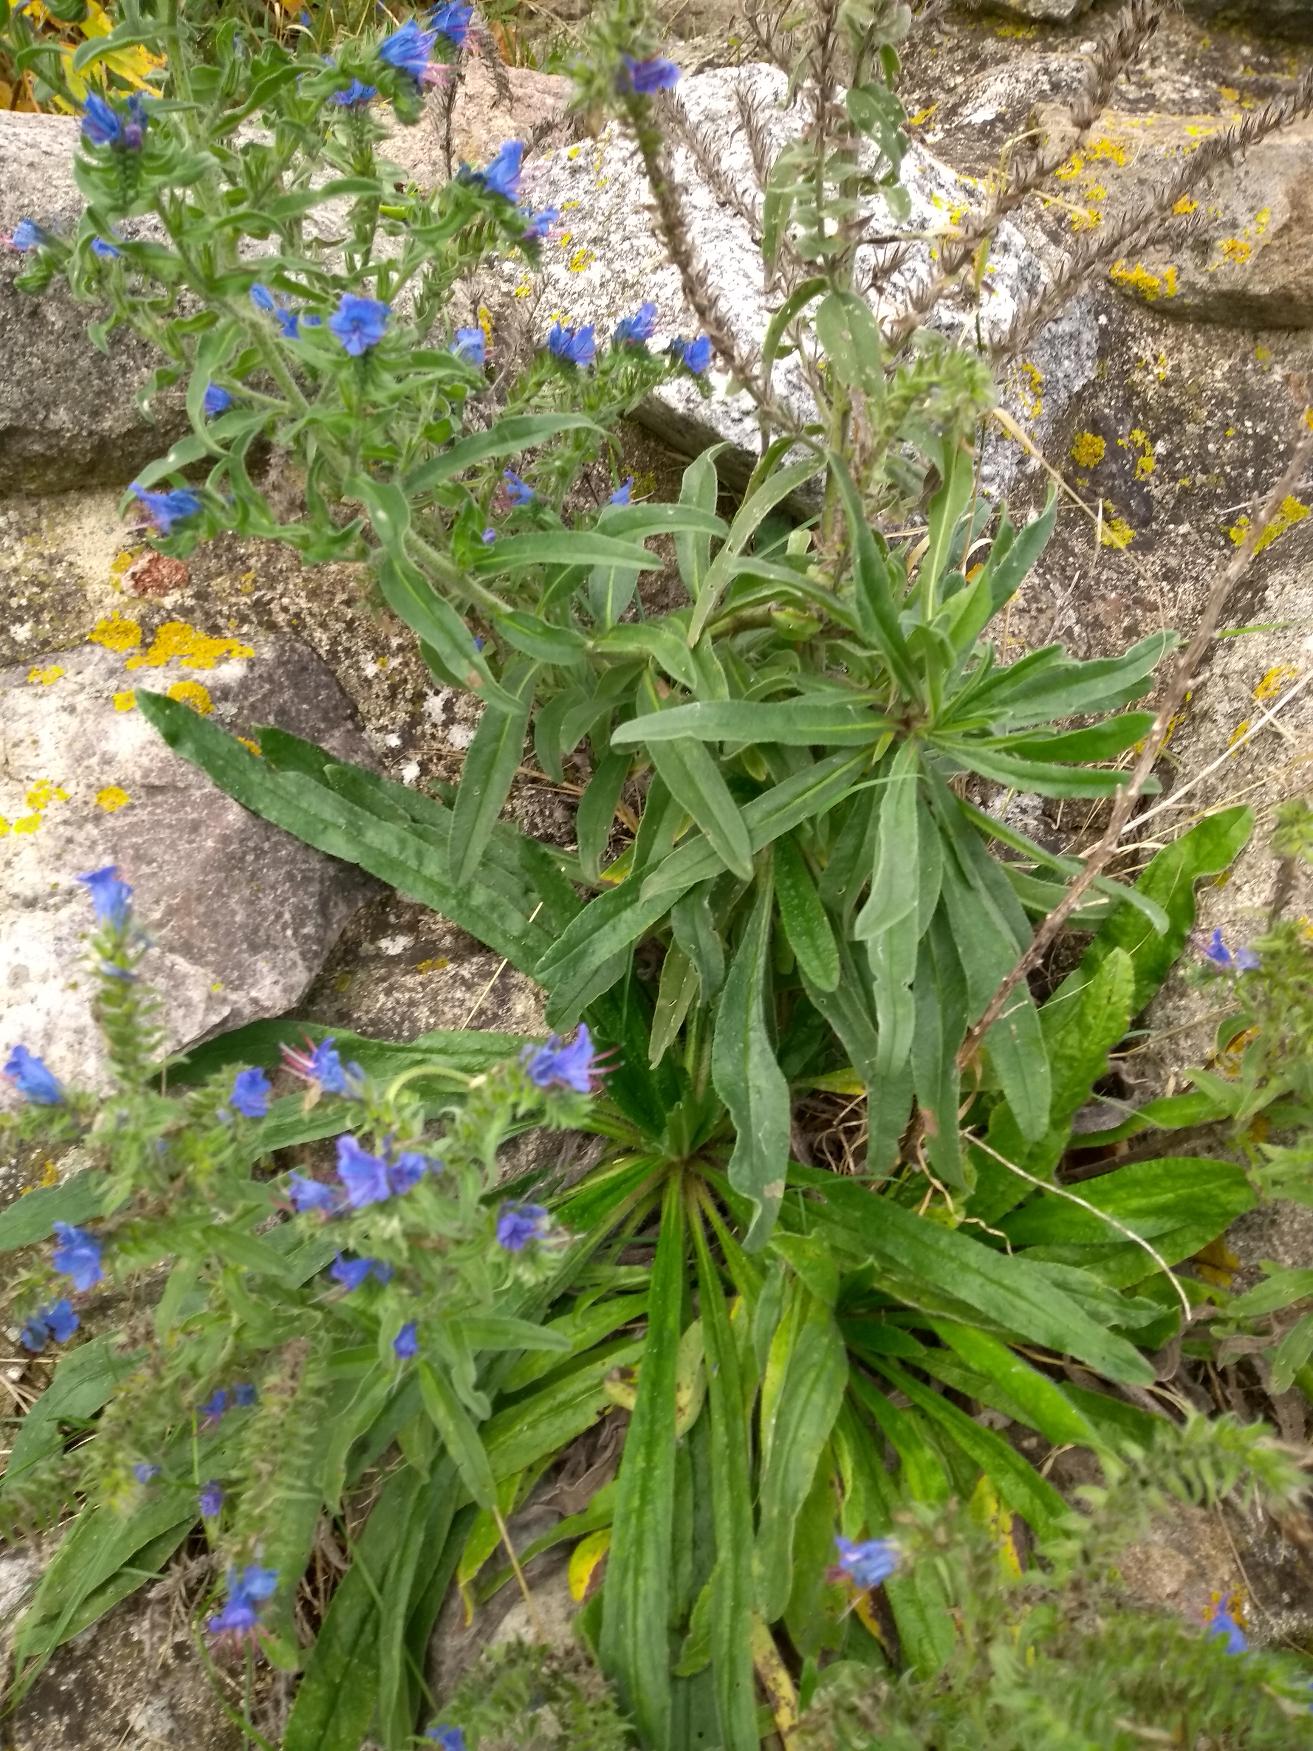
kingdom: Plantae
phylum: Tracheophyta
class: Magnoliopsida
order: Boraginales
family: Boraginaceae
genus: Echium
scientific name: Echium vulgare
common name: Slangehoved
